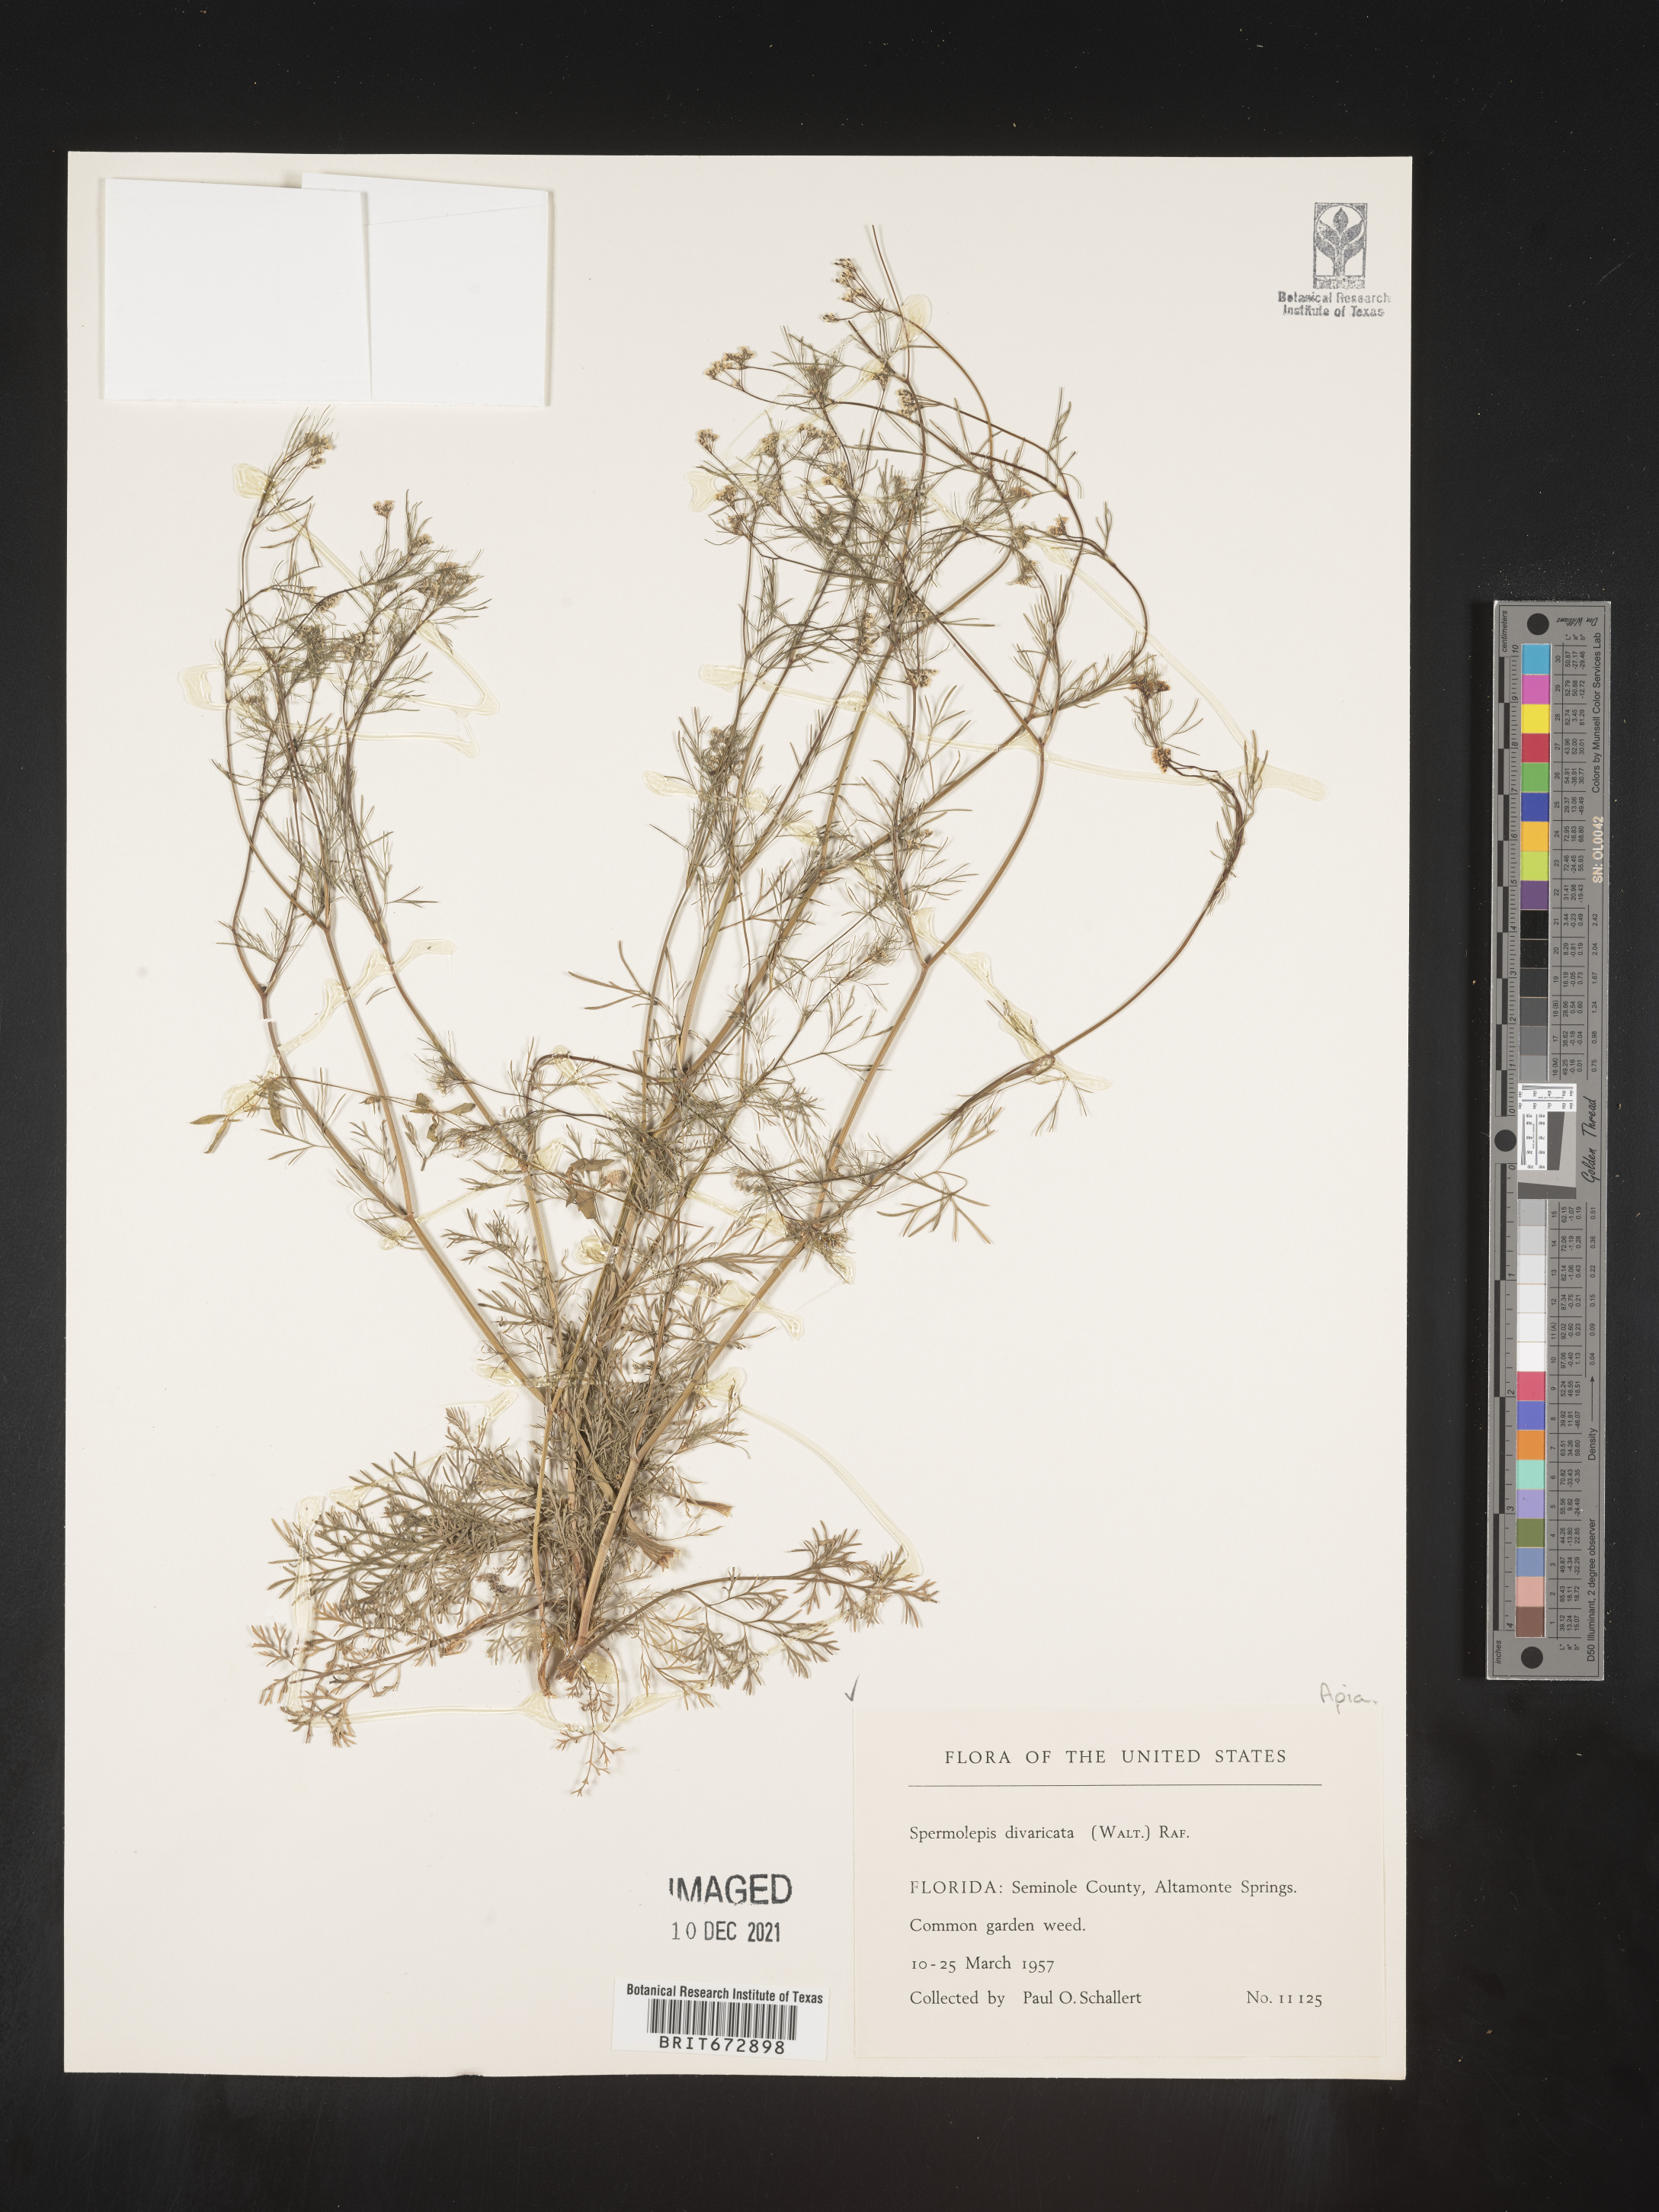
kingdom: Plantae
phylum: Tracheophyta
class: Magnoliopsida
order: Apiales
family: Apiaceae
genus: Spermolepis
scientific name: Spermolepis divaricata
